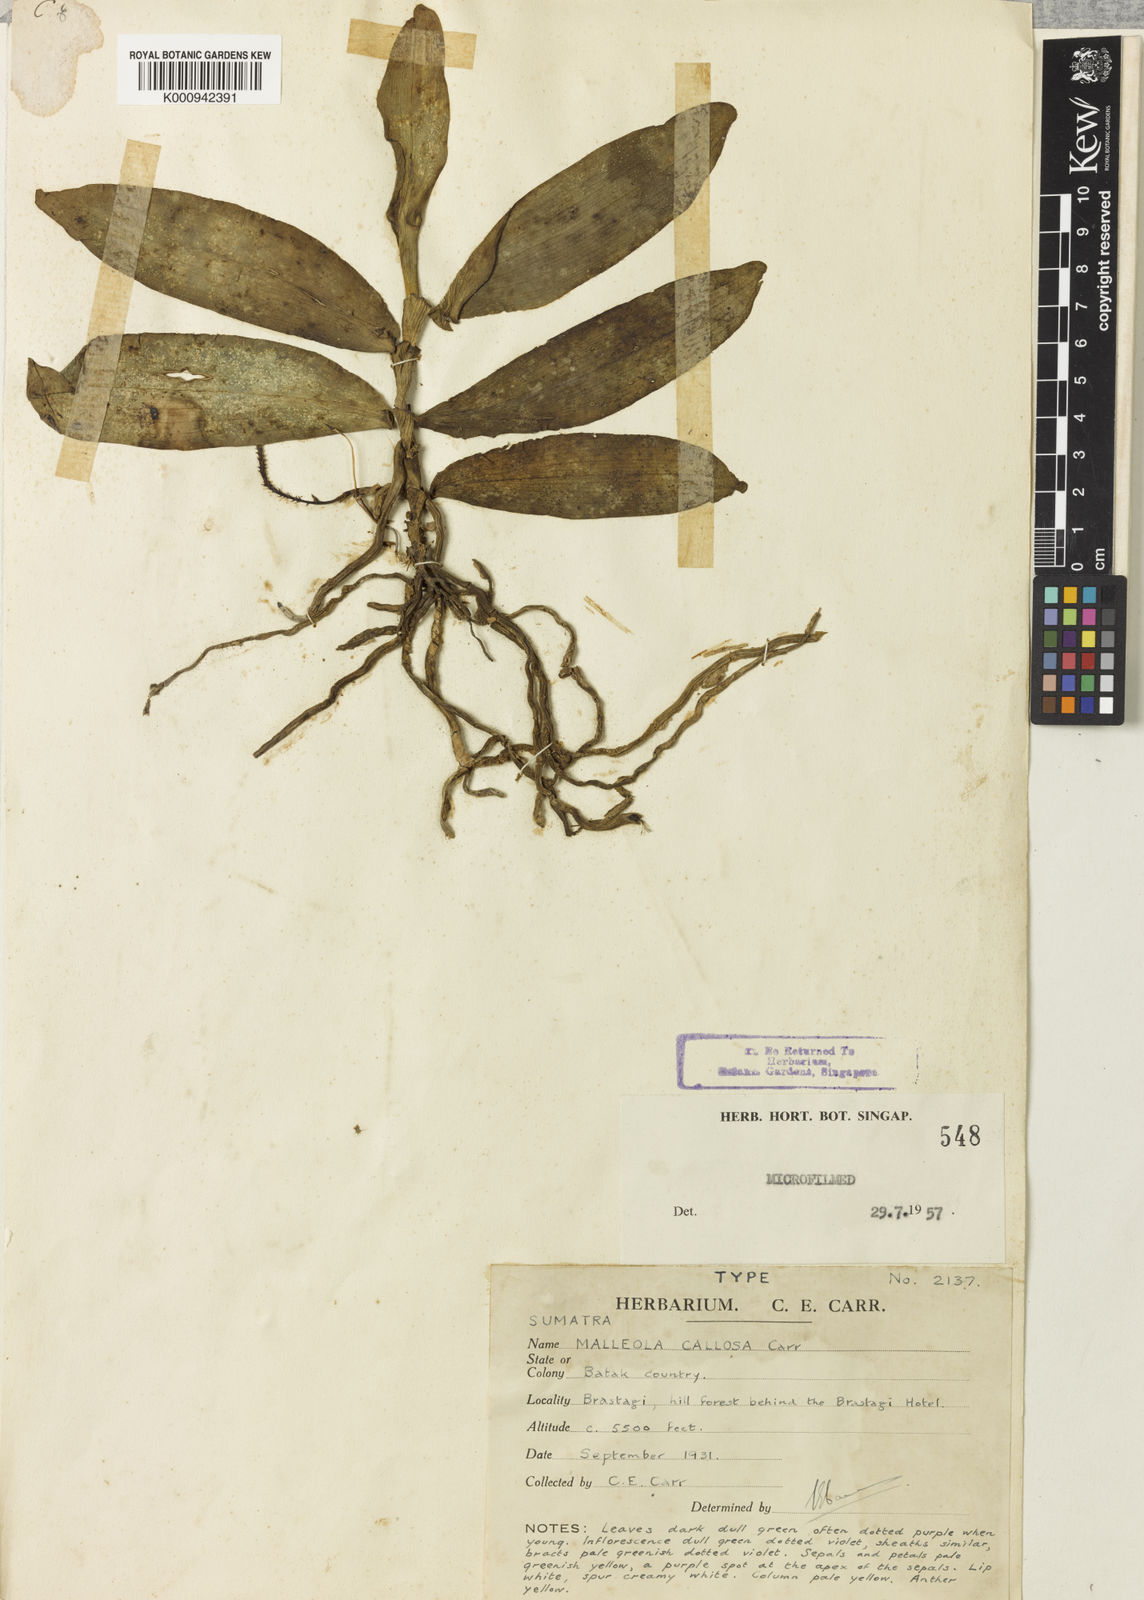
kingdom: Plantae
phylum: Tracheophyta
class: Liliopsida
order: Asparagales
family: Orchidaceae
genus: Robiquetia
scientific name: Robiquetia callosa
